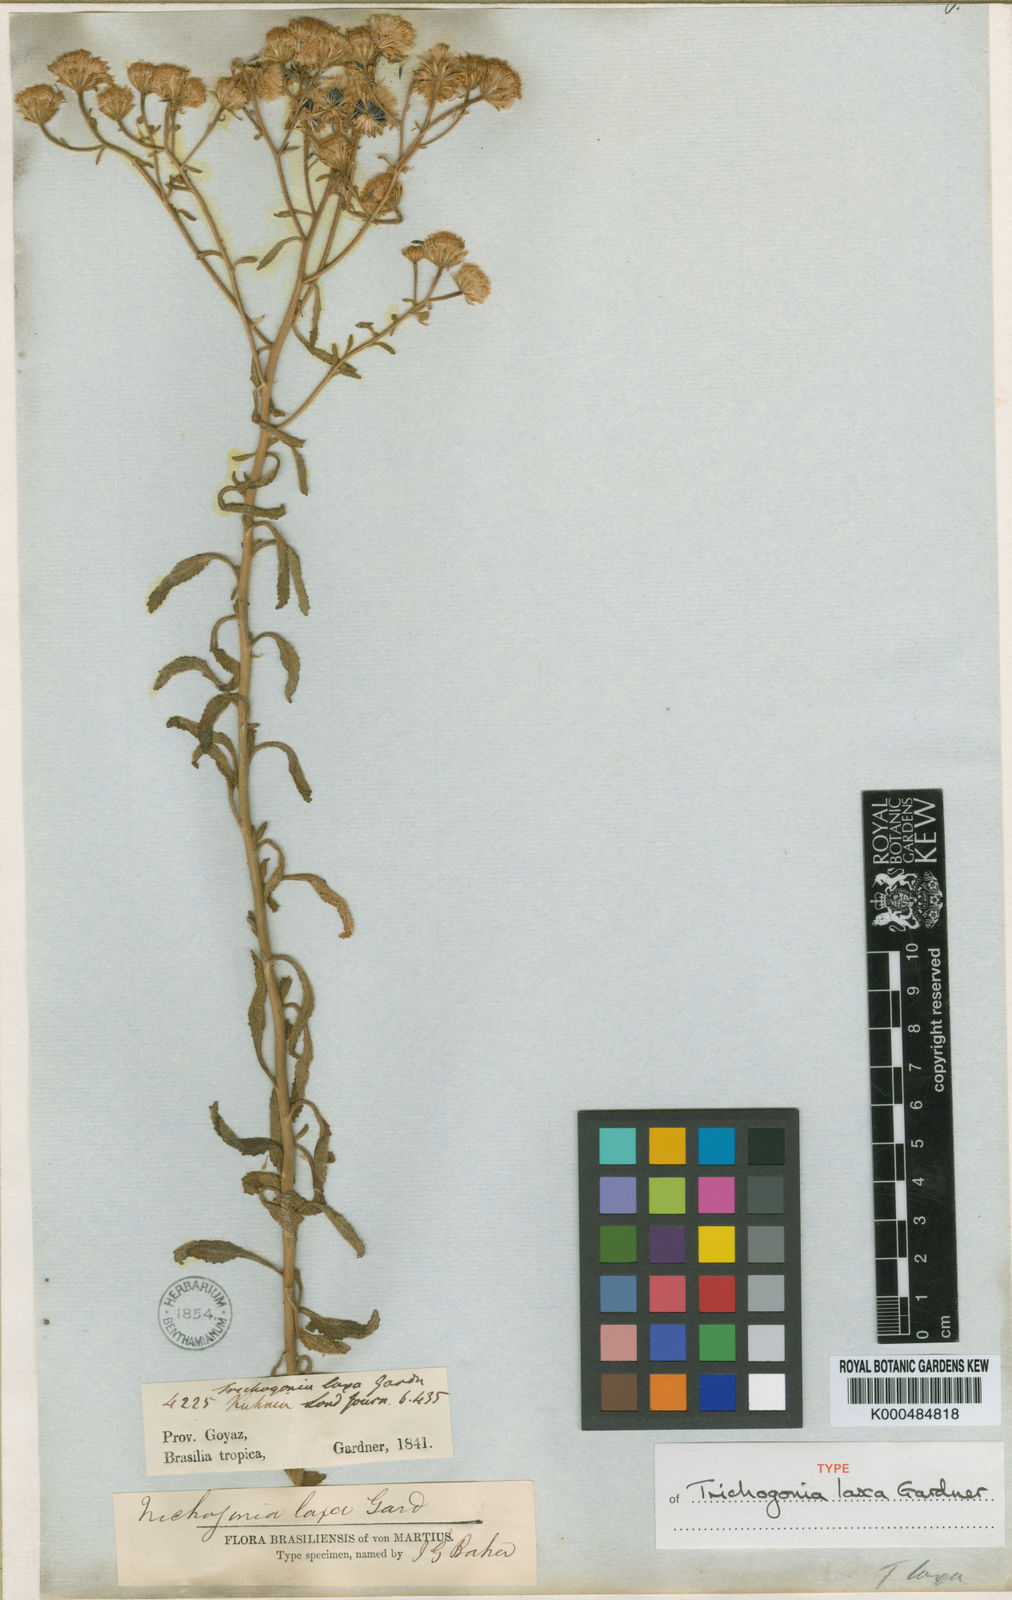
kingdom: Plantae
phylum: Tracheophyta
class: Magnoliopsida
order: Asterales
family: Asteraceae
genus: Trichogonia
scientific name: Trichogonia laxa
